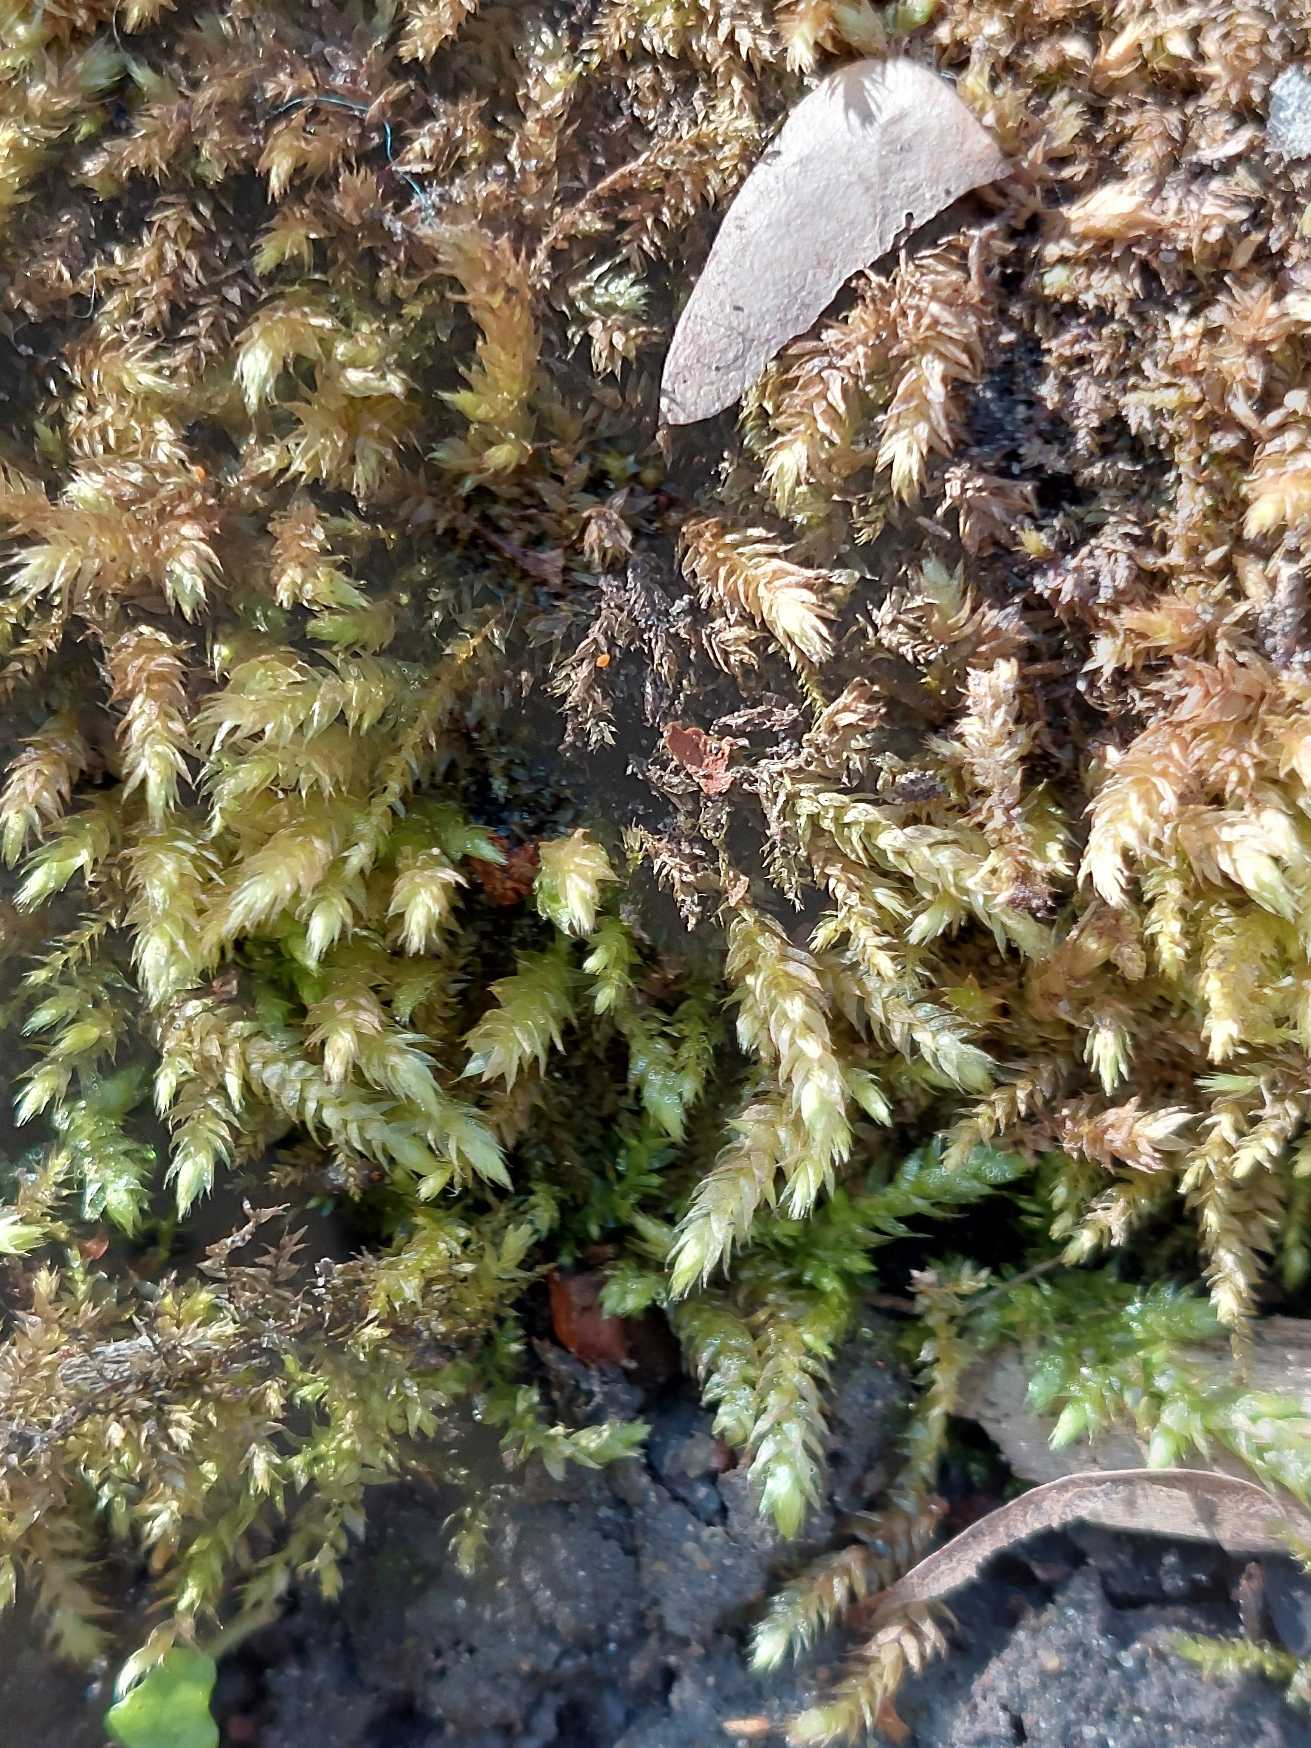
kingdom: Plantae
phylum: Bryophyta
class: Bryopsida
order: Hypnales
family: Brachytheciaceae
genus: Brachythecium
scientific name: Brachythecium rutabulum
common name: Almindelig kortkapsel
